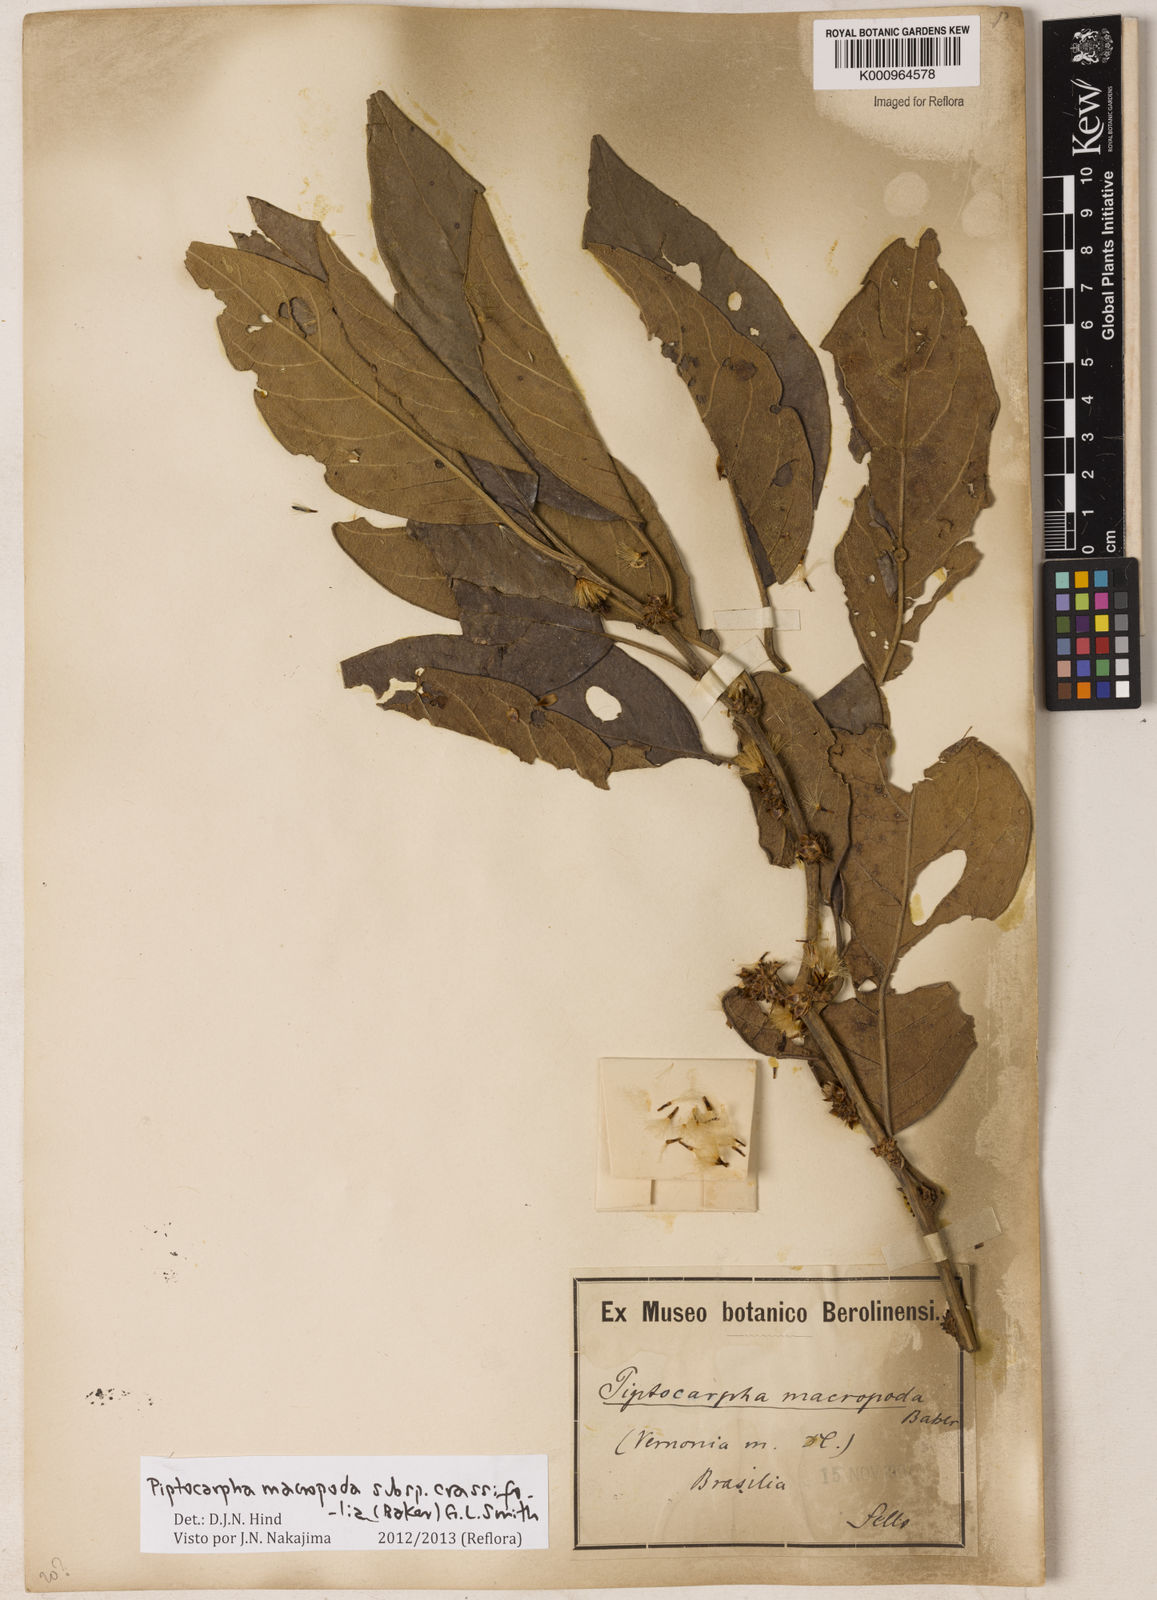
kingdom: Plantae
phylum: Tracheophyta
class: Magnoliopsida
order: Asterales
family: Asteraceae
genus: Piptocarpha
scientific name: Piptocarpha macropoda
